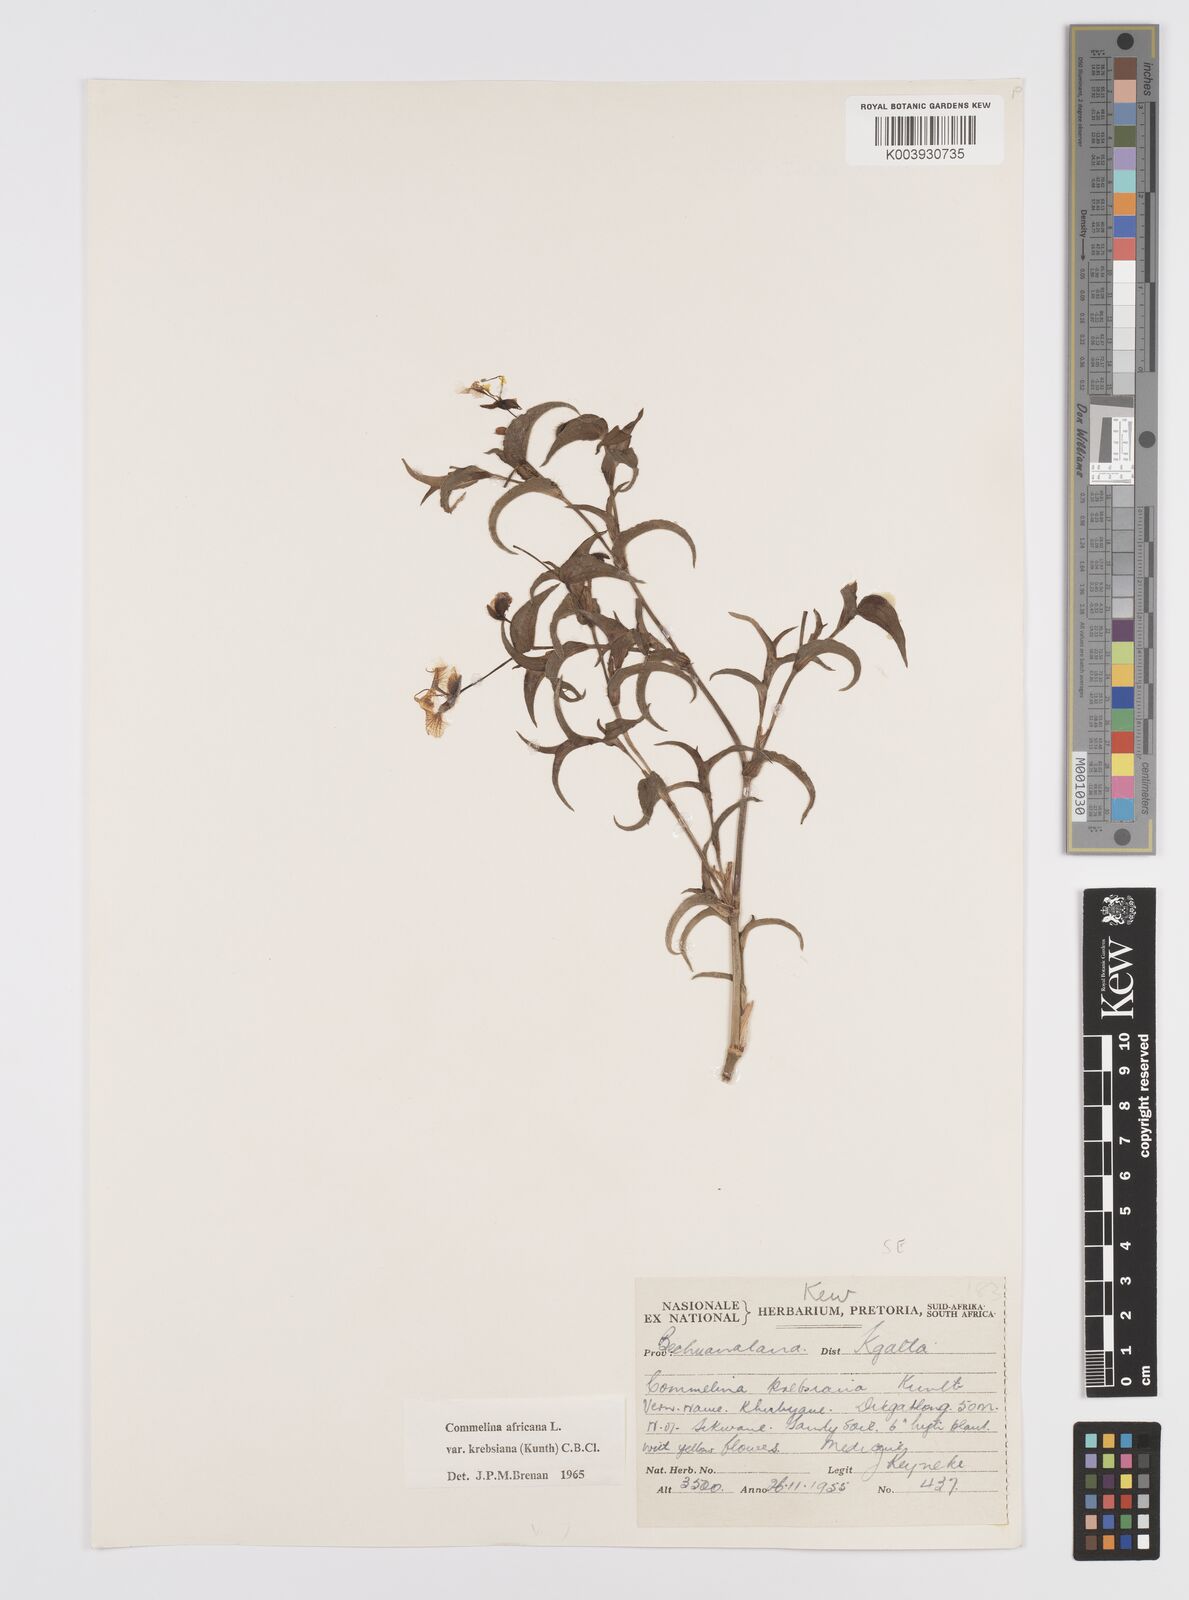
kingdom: Plantae
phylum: Tracheophyta
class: Liliopsida
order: Commelinales
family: Commelinaceae
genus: Commelina
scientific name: Commelina africana
